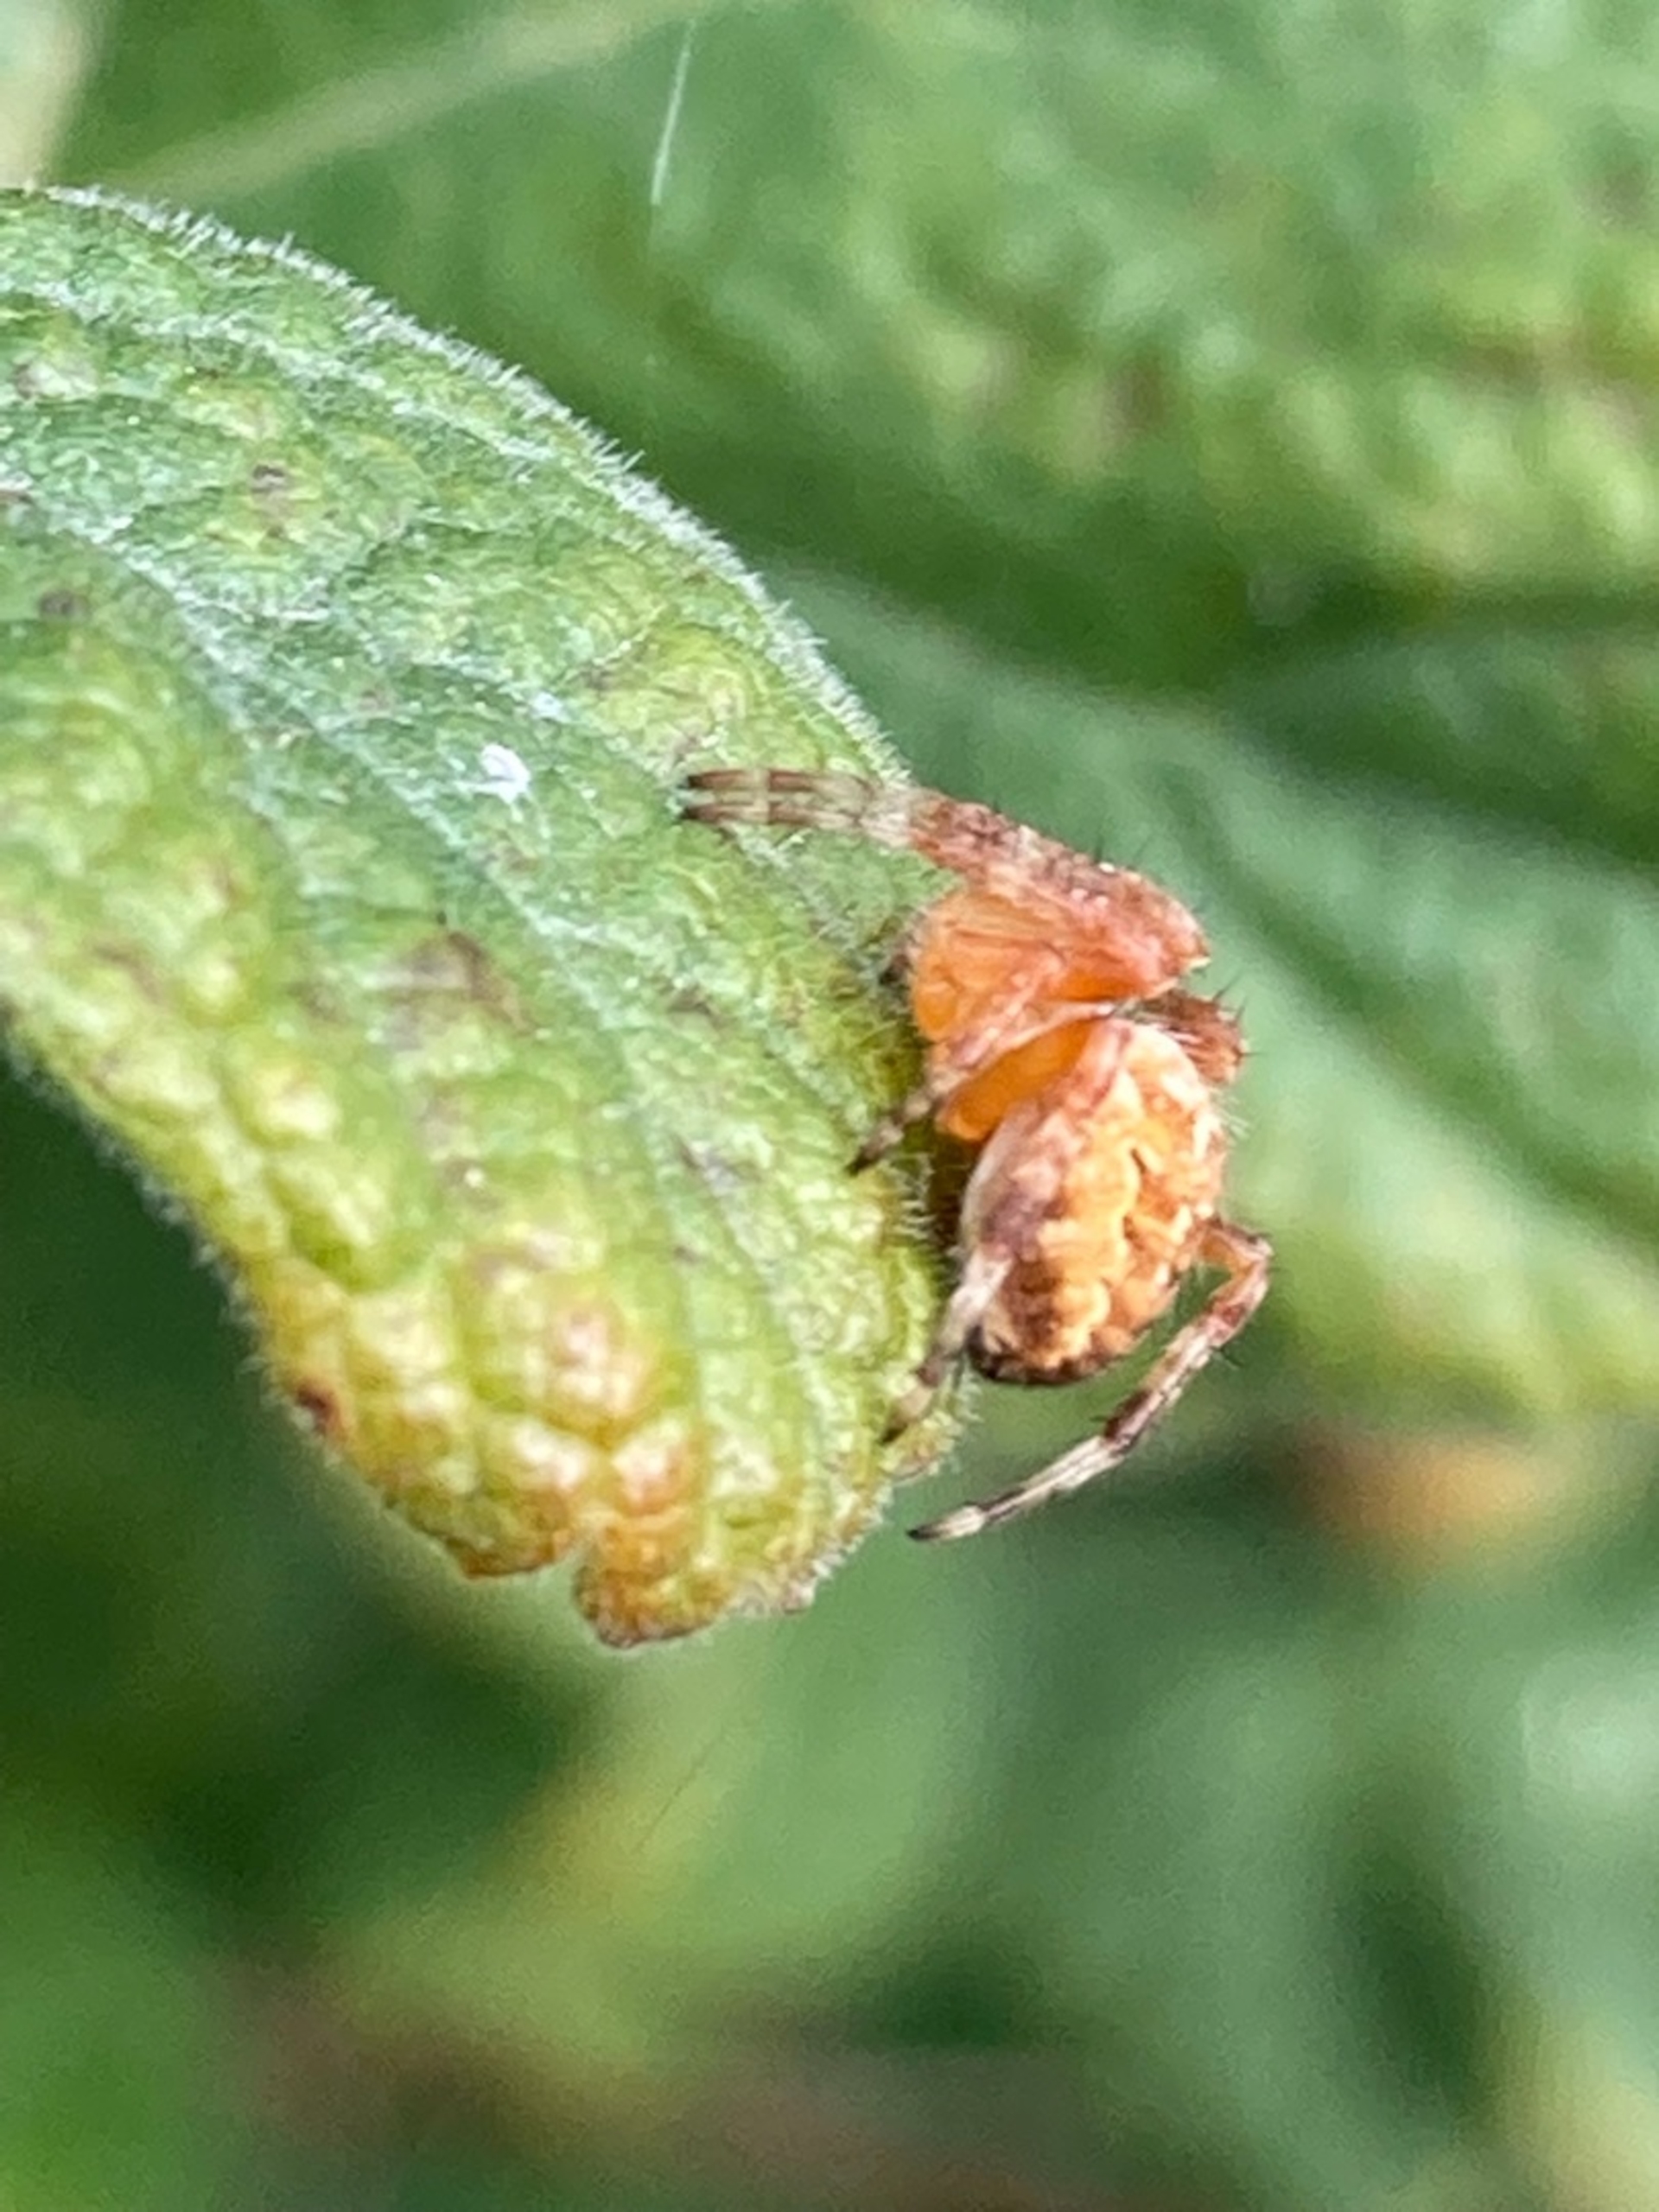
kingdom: Animalia
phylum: Arthropoda
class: Arachnida
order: Araneae
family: Araneidae
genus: Araneus
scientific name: Araneus diadematus
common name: Korsedderkop
